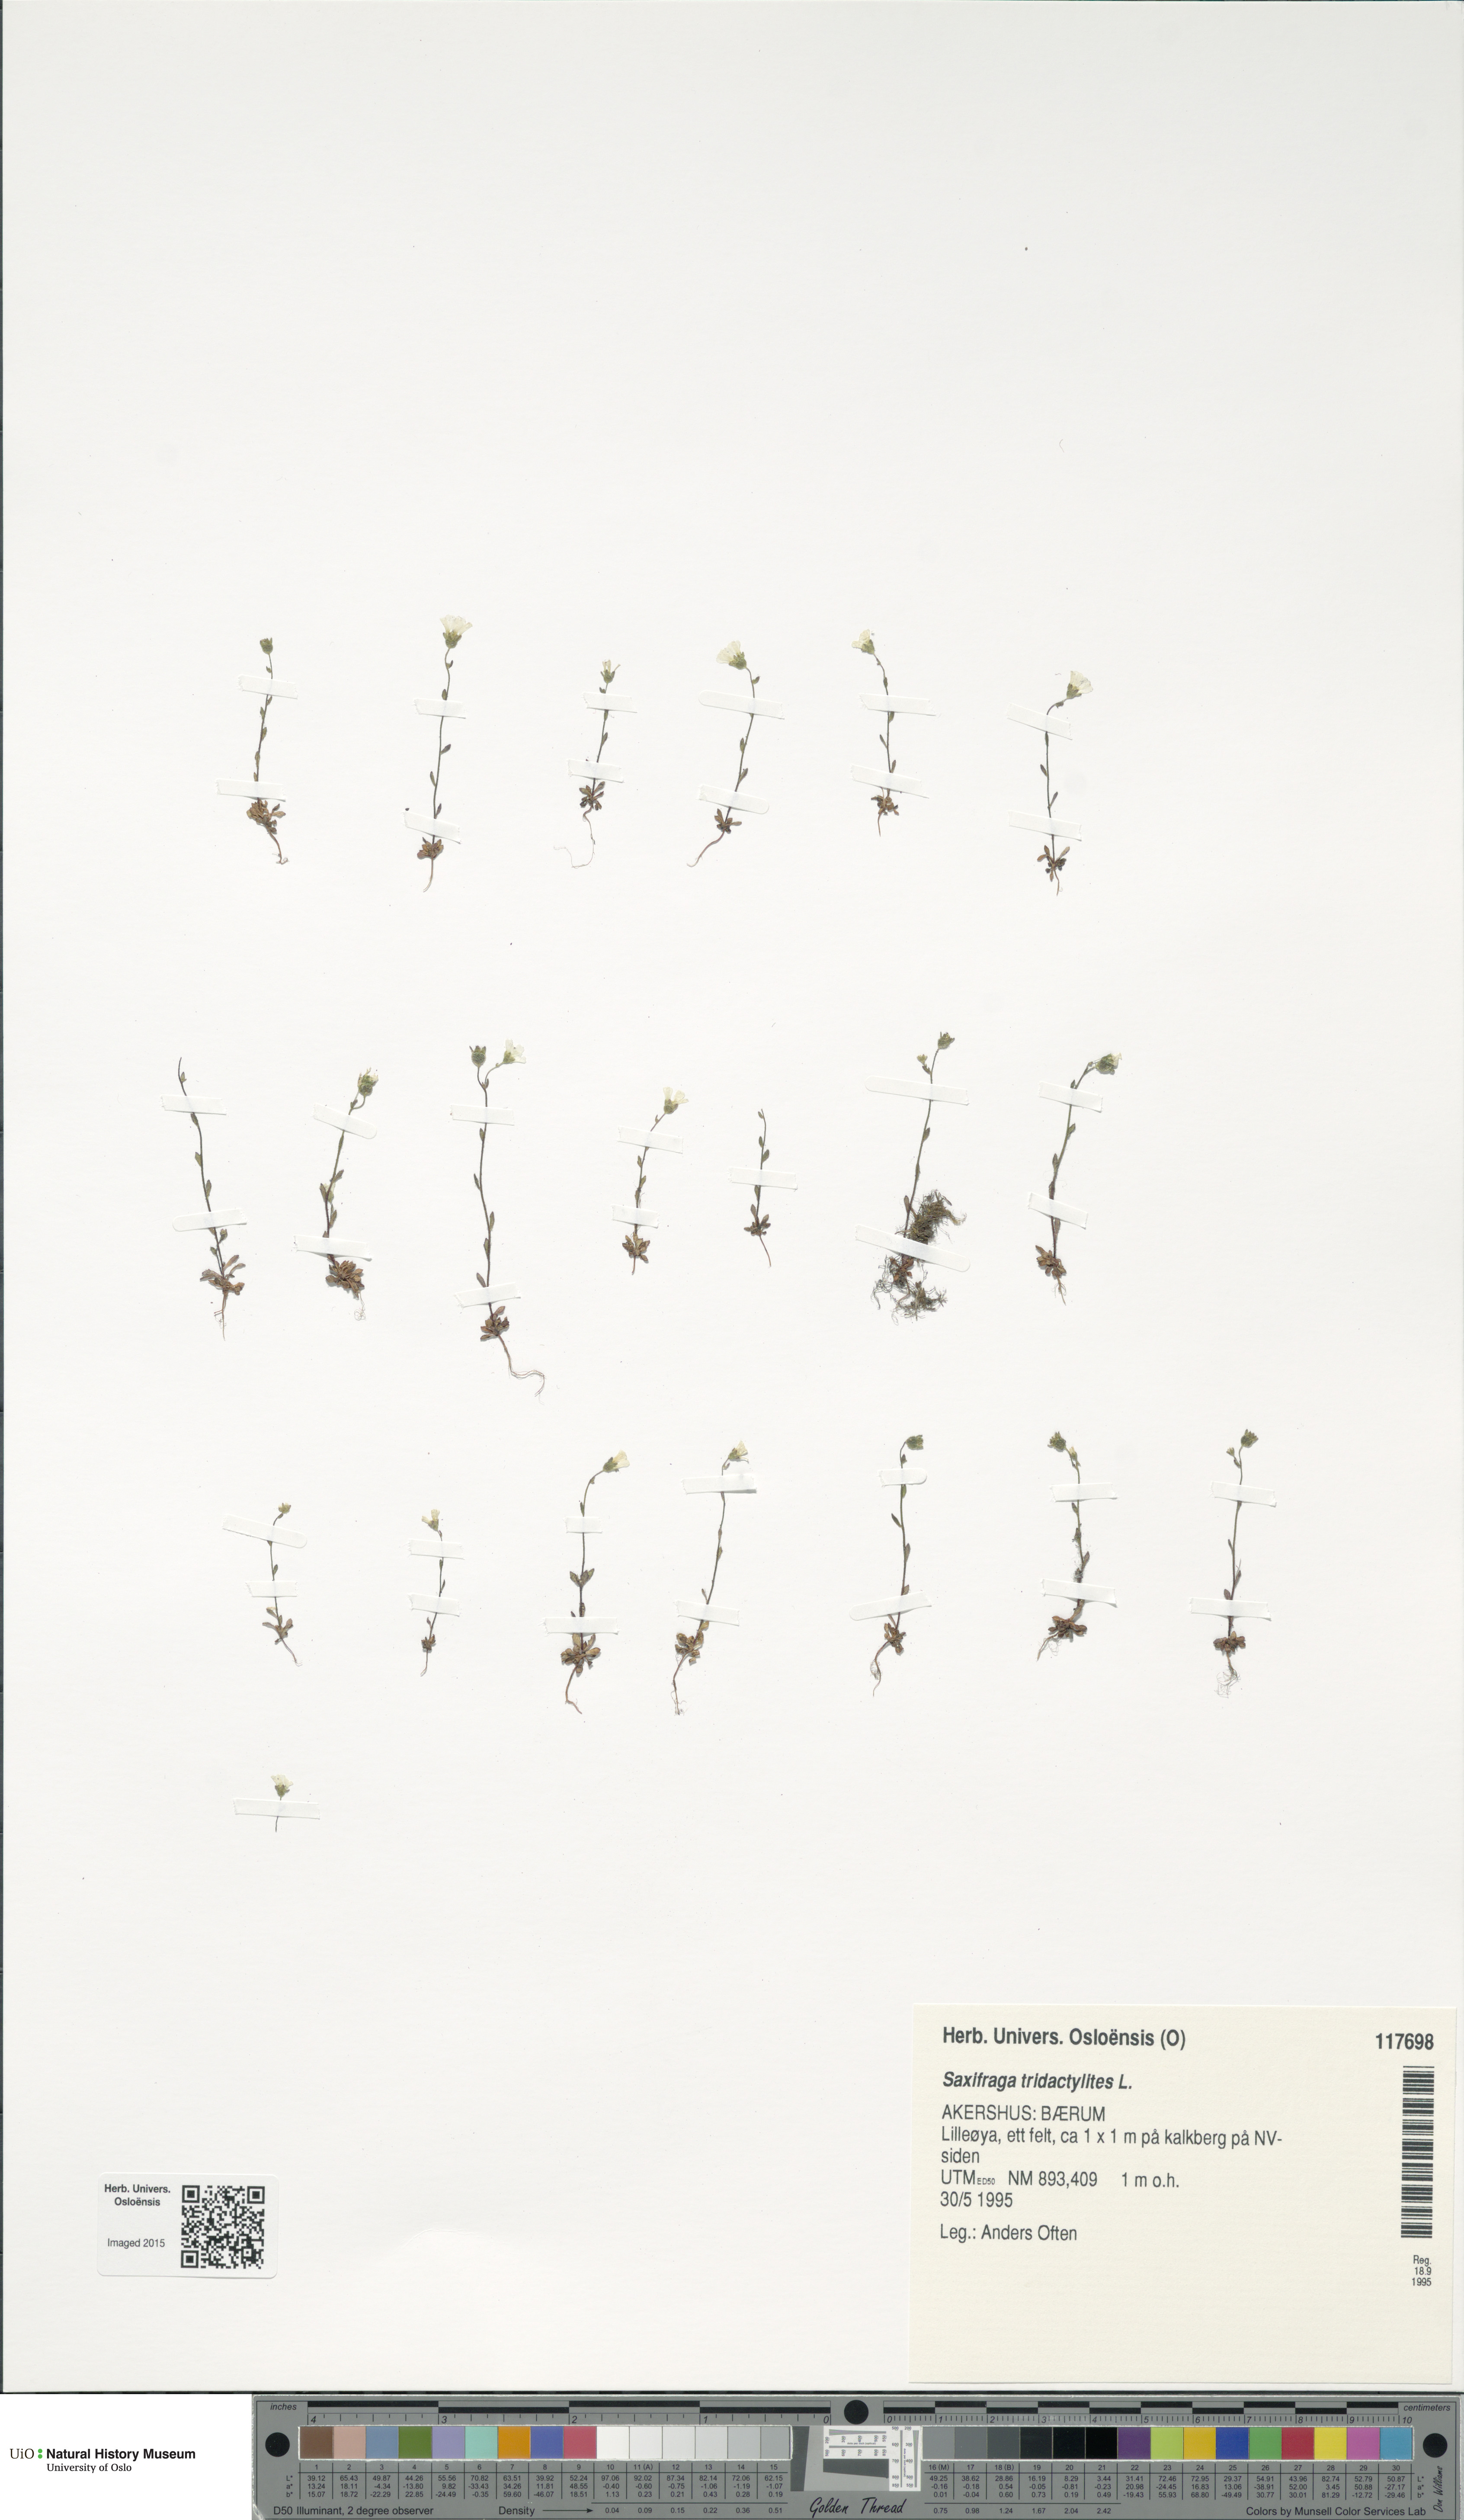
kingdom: Plantae
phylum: Tracheophyta
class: Magnoliopsida
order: Saxifragales
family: Saxifragaceae
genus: Saxifraga
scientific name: Saxifraga tridactylites
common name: Rue-leaved saxifrage
